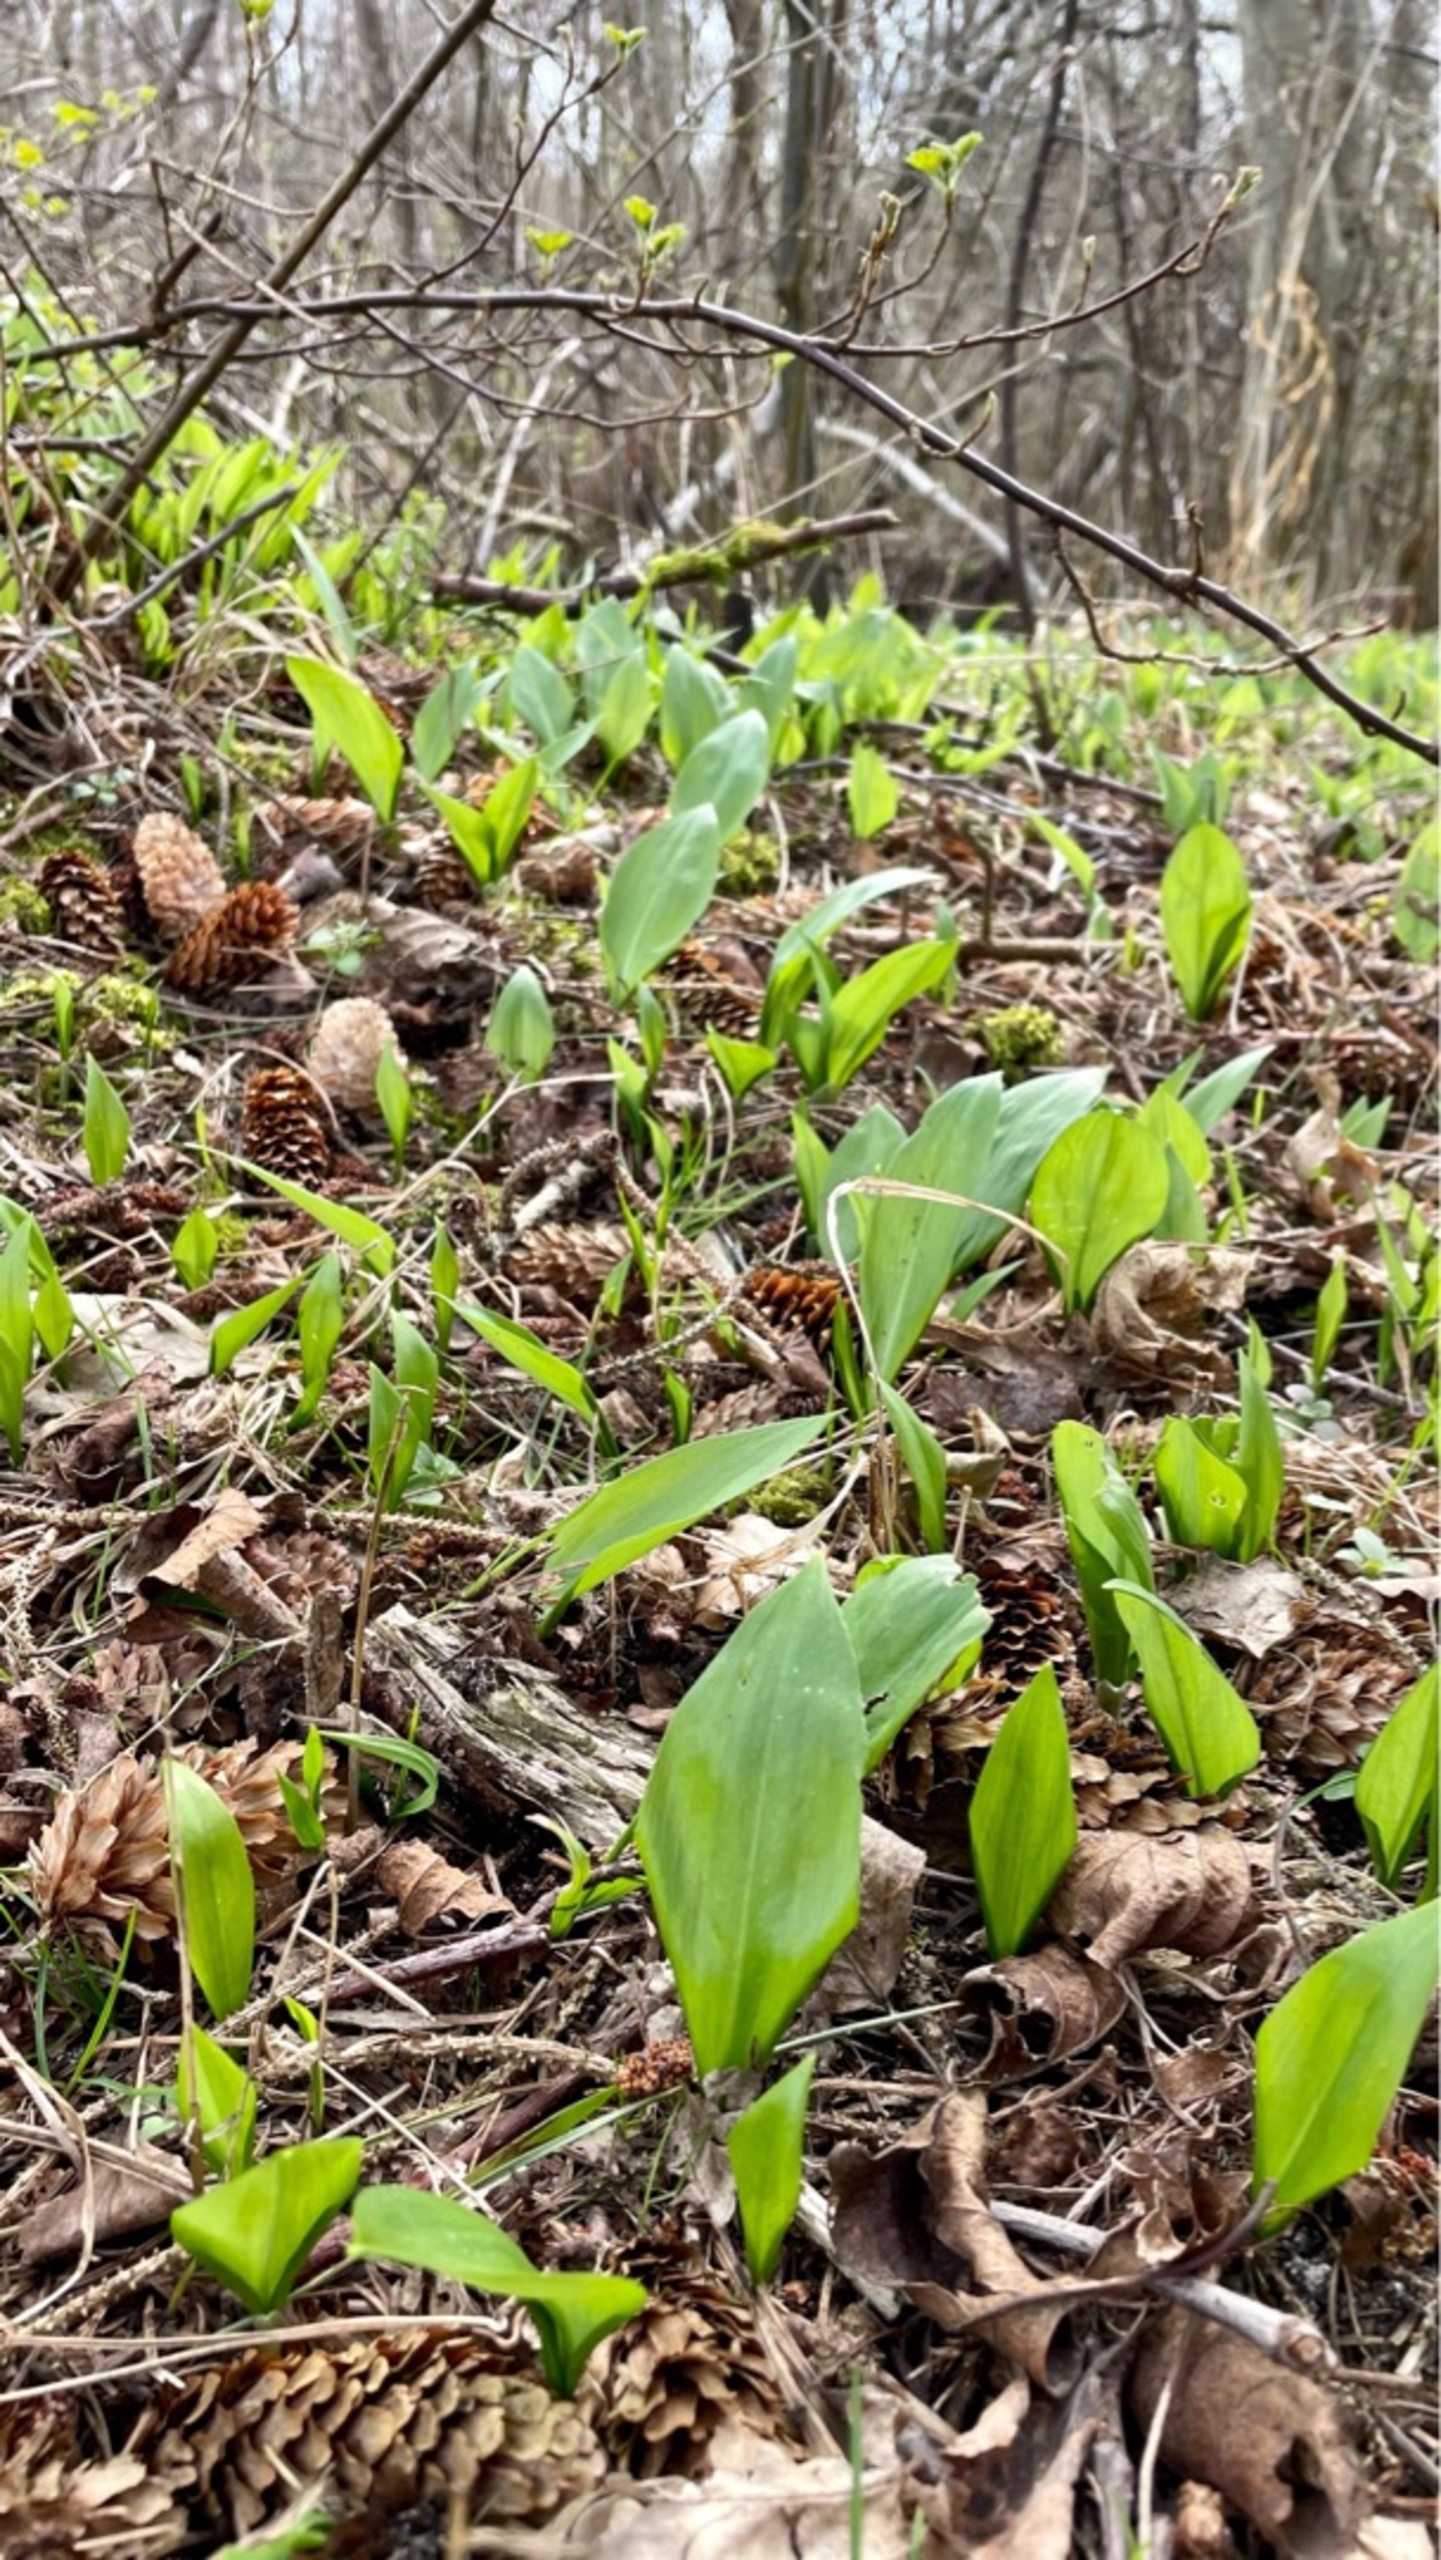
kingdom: Plantae
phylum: Tracheophyta
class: Liliopsida
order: Asparagales
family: Amaryllidaceae
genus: Allium
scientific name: Allium ursinum
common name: Rams-løg
